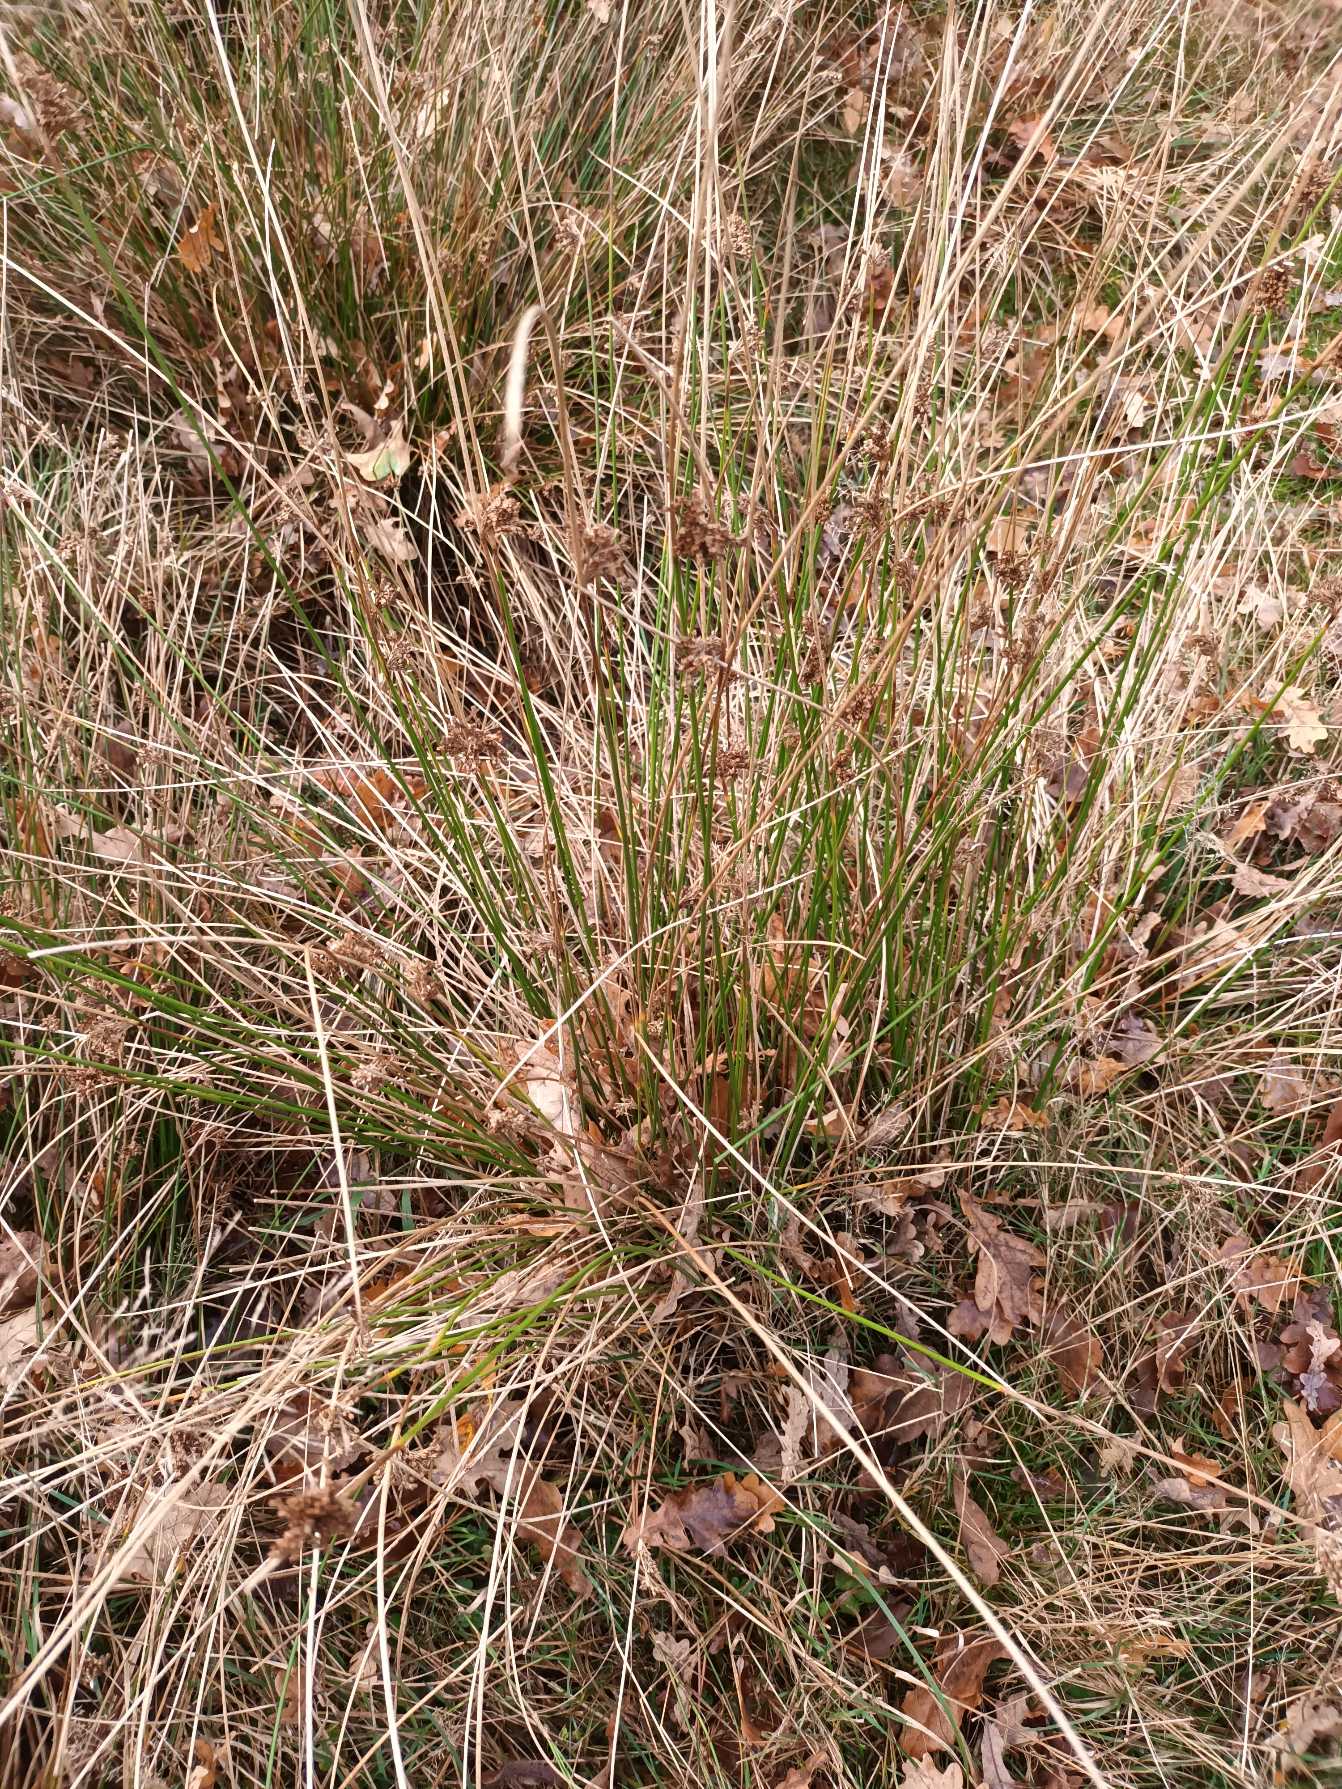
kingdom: Plantae
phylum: Tracheophyta
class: Liliopsida
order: Poales
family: Juncaceae
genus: Juncus
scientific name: Juncus effusus
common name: Lyse-siv
